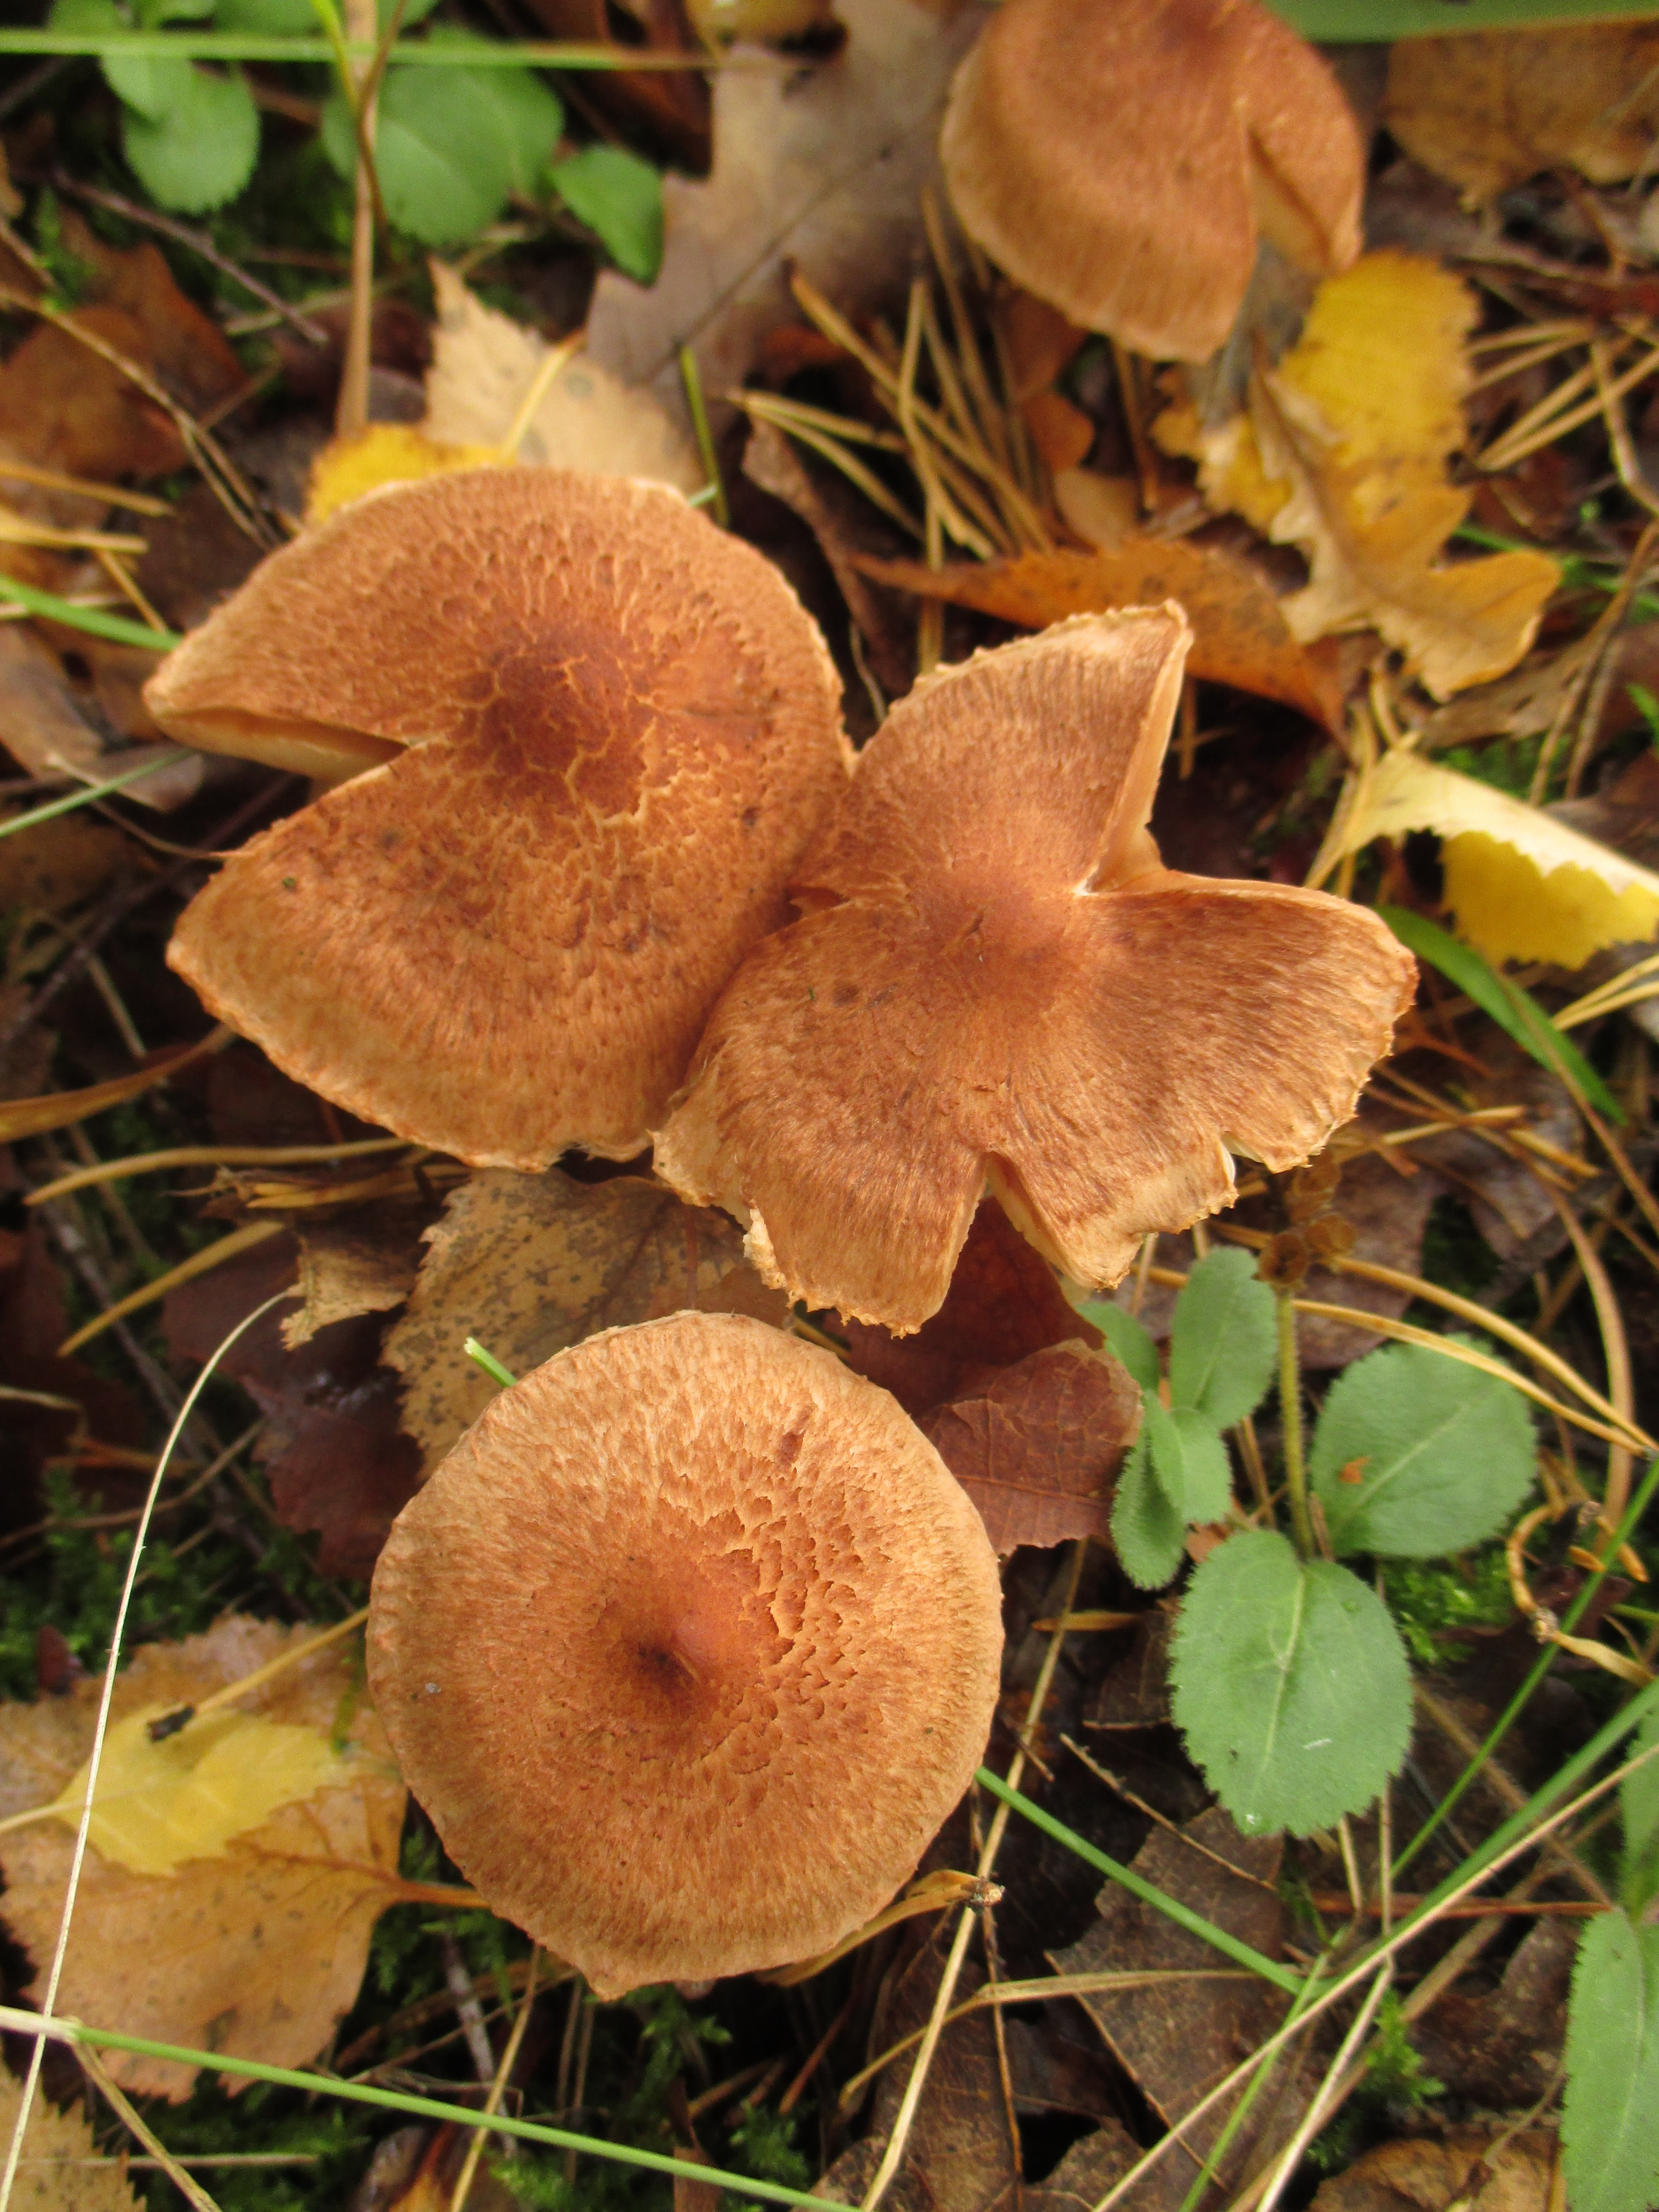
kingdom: Fungi
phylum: Basidiomycota
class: Agaricomycetes
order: Agaricales
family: Tricholomataceae
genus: Tricholoma
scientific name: Tricholoma vaccinum
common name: Scaly knight
